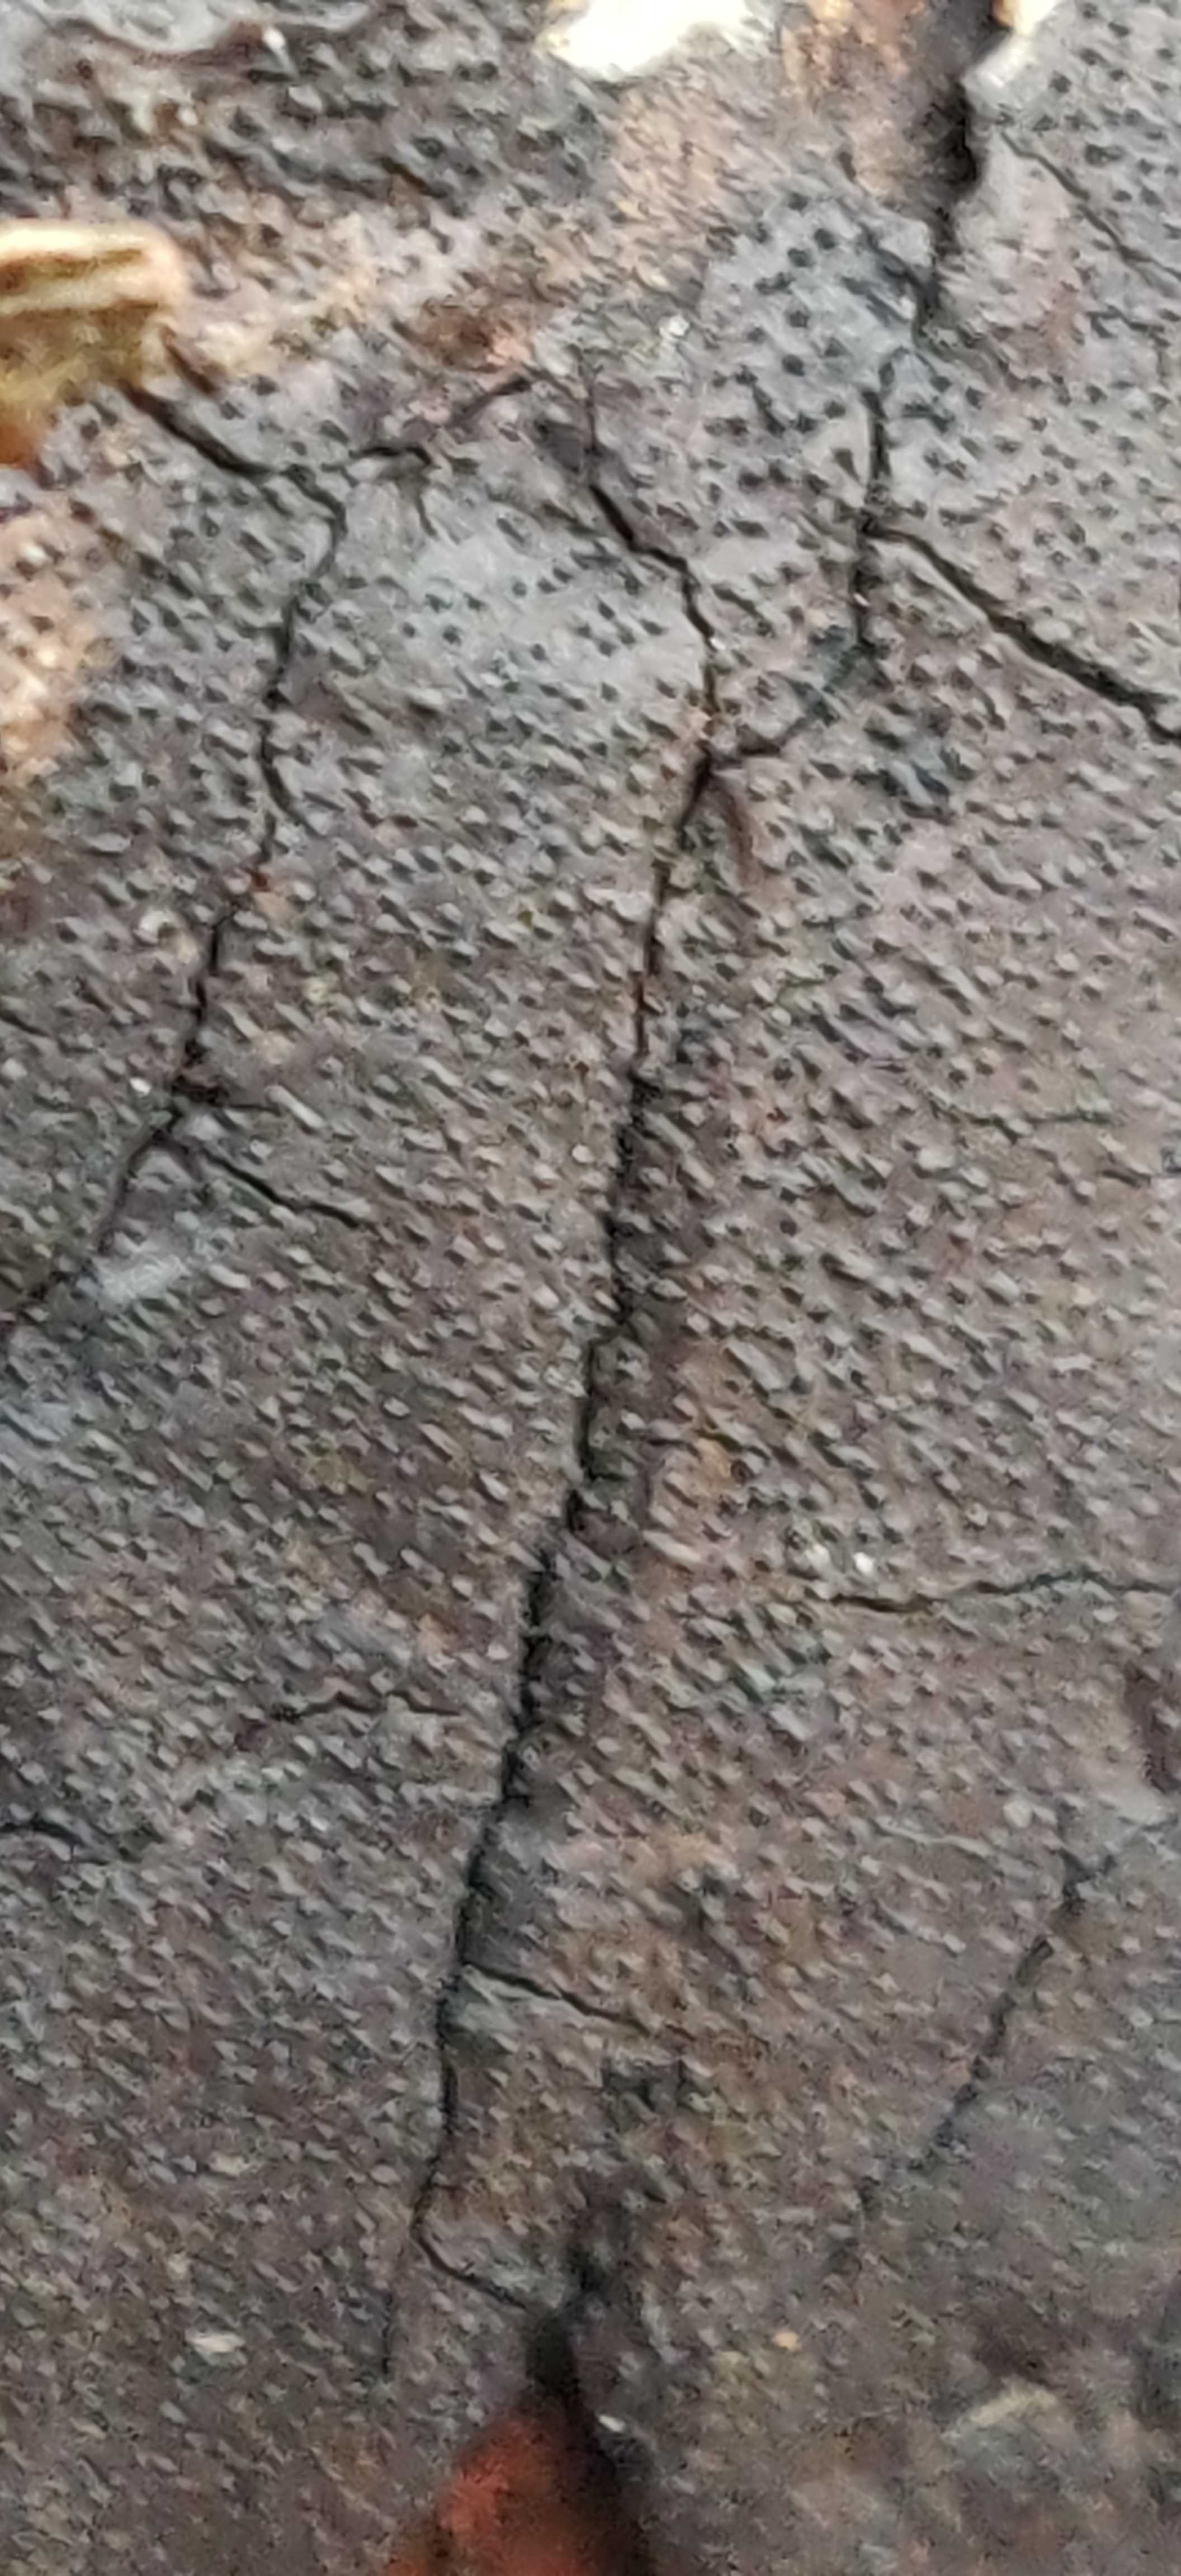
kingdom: Fungi
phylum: Ascomycota
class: Sordariomycetes
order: Xylariales
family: Diatrypaceae
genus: Diatrype
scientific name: Diatrype
